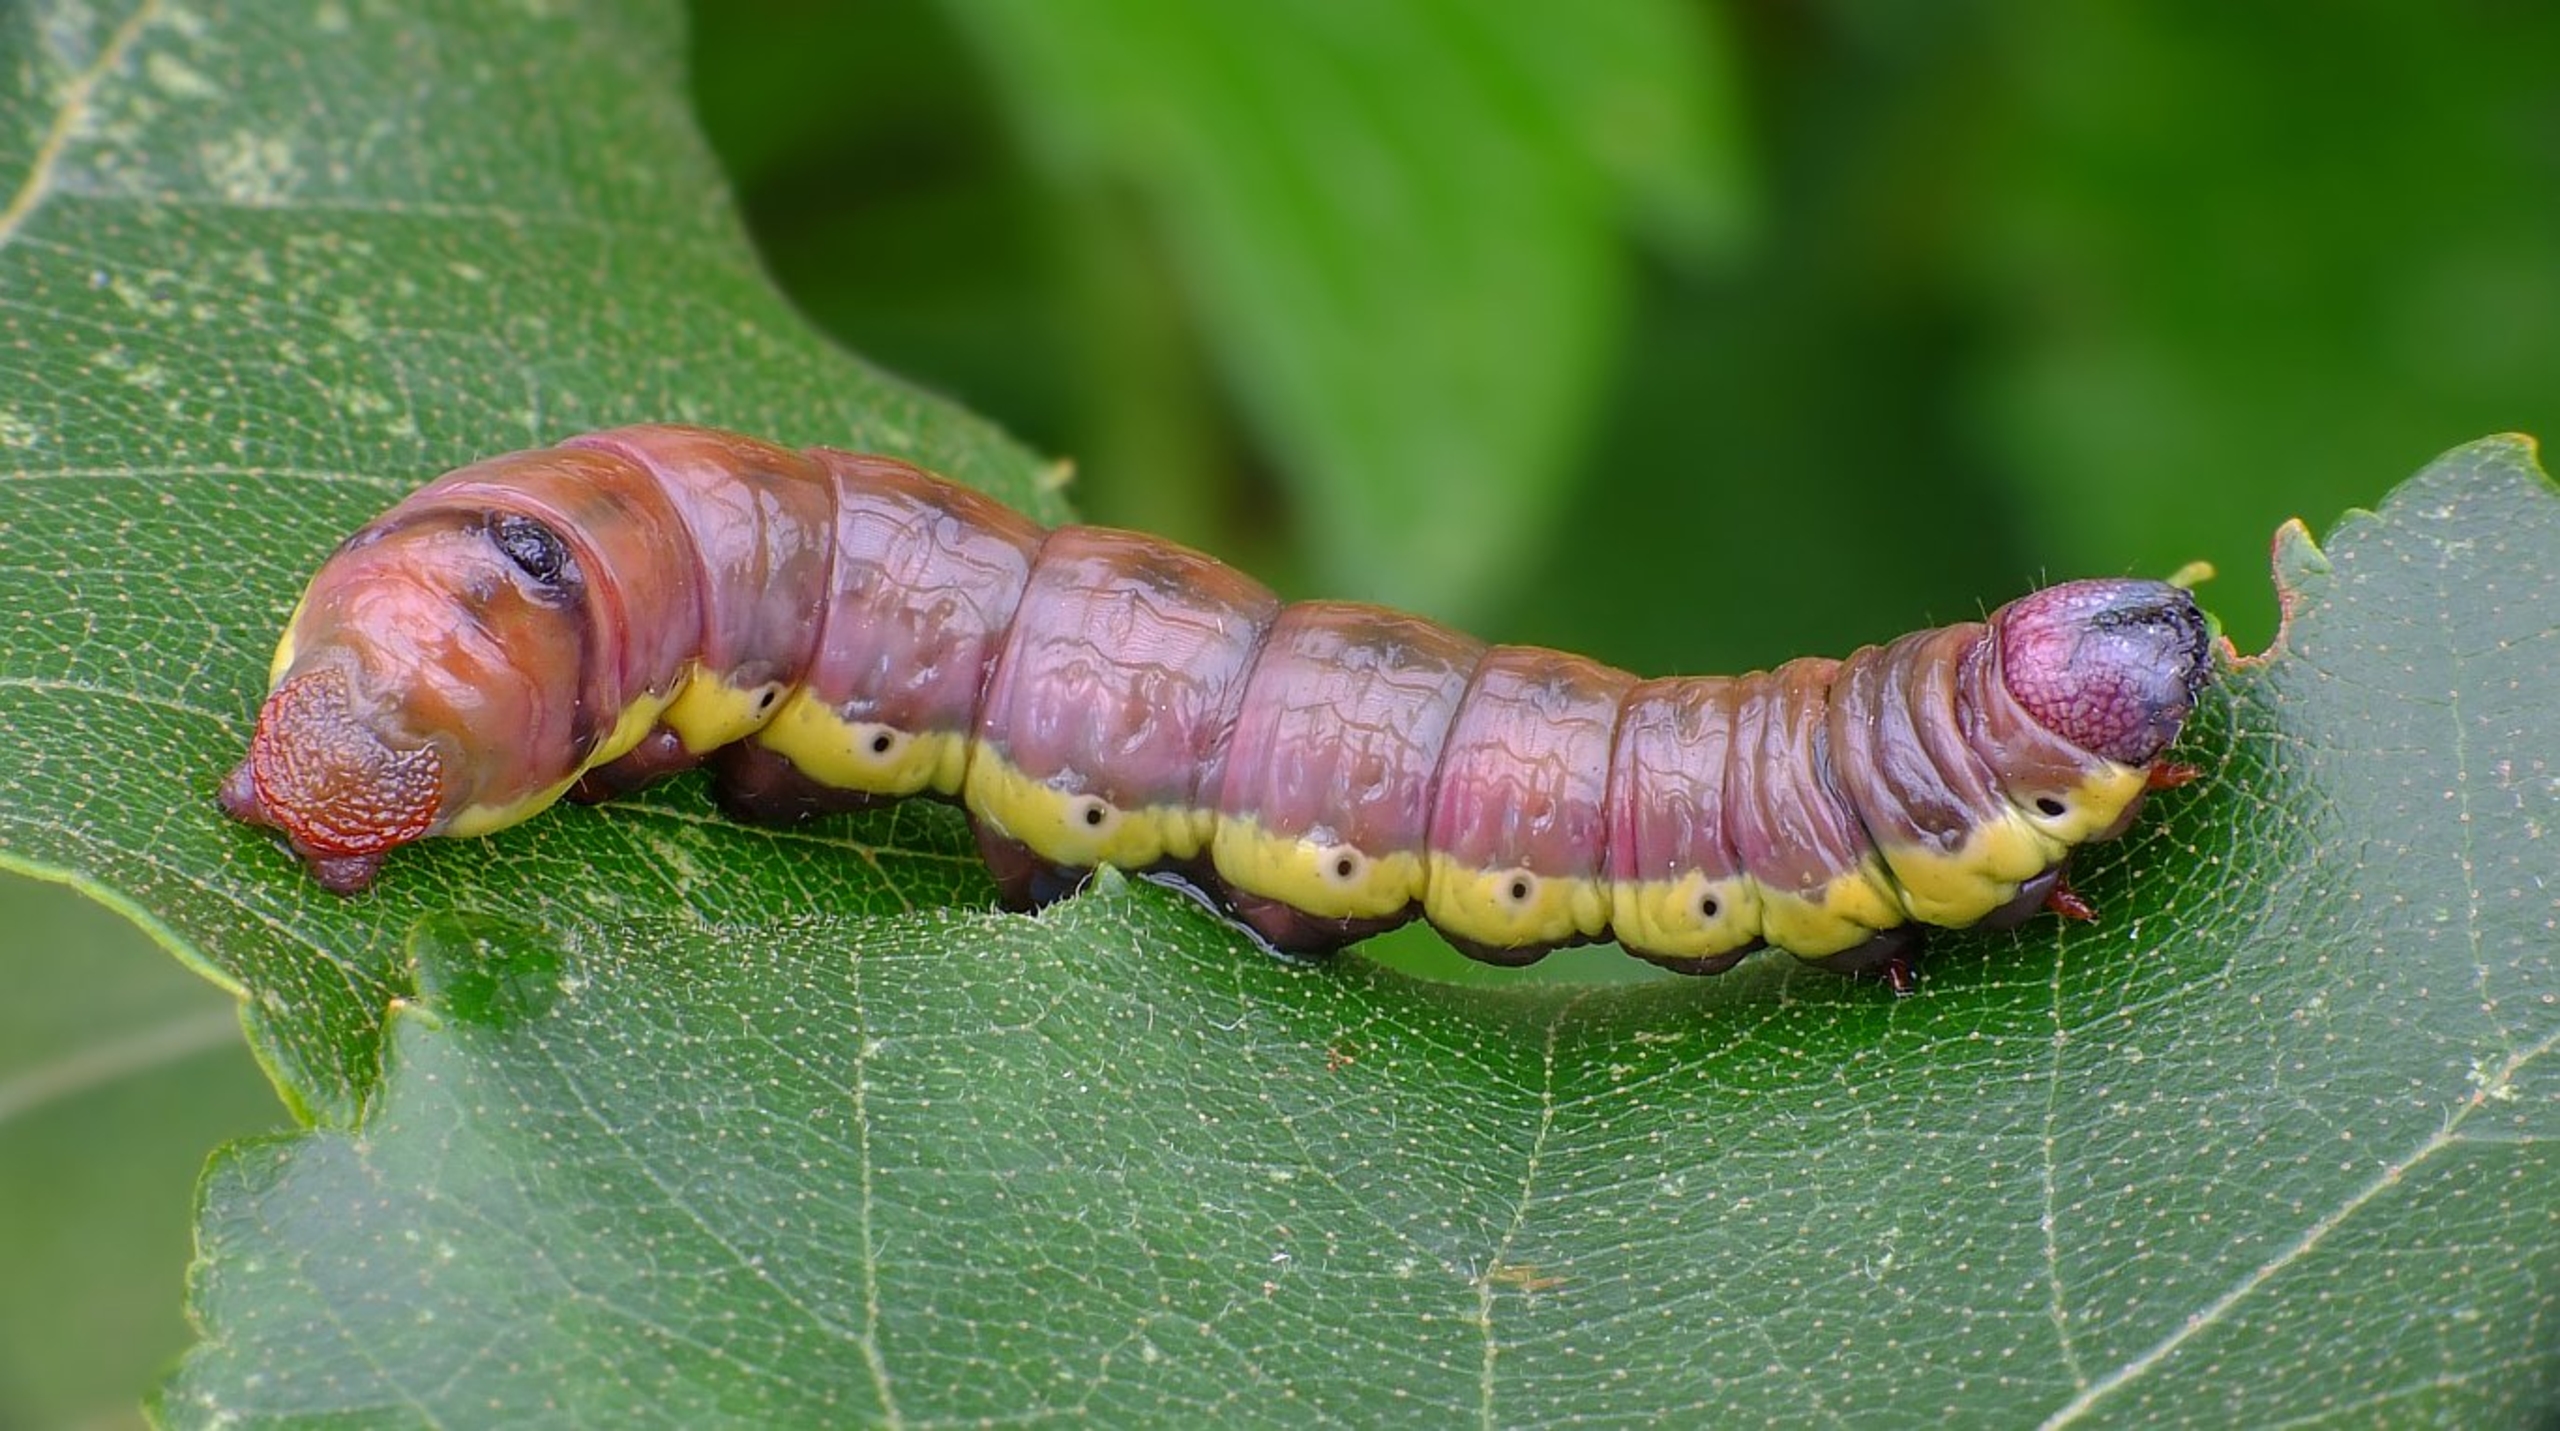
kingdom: Animalia
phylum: Arthropoda
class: Insecta
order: Lepidoptera
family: Notodontidae
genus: Pheosia
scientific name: Pheosia gnoma
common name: Birkeporcelænsspinder
